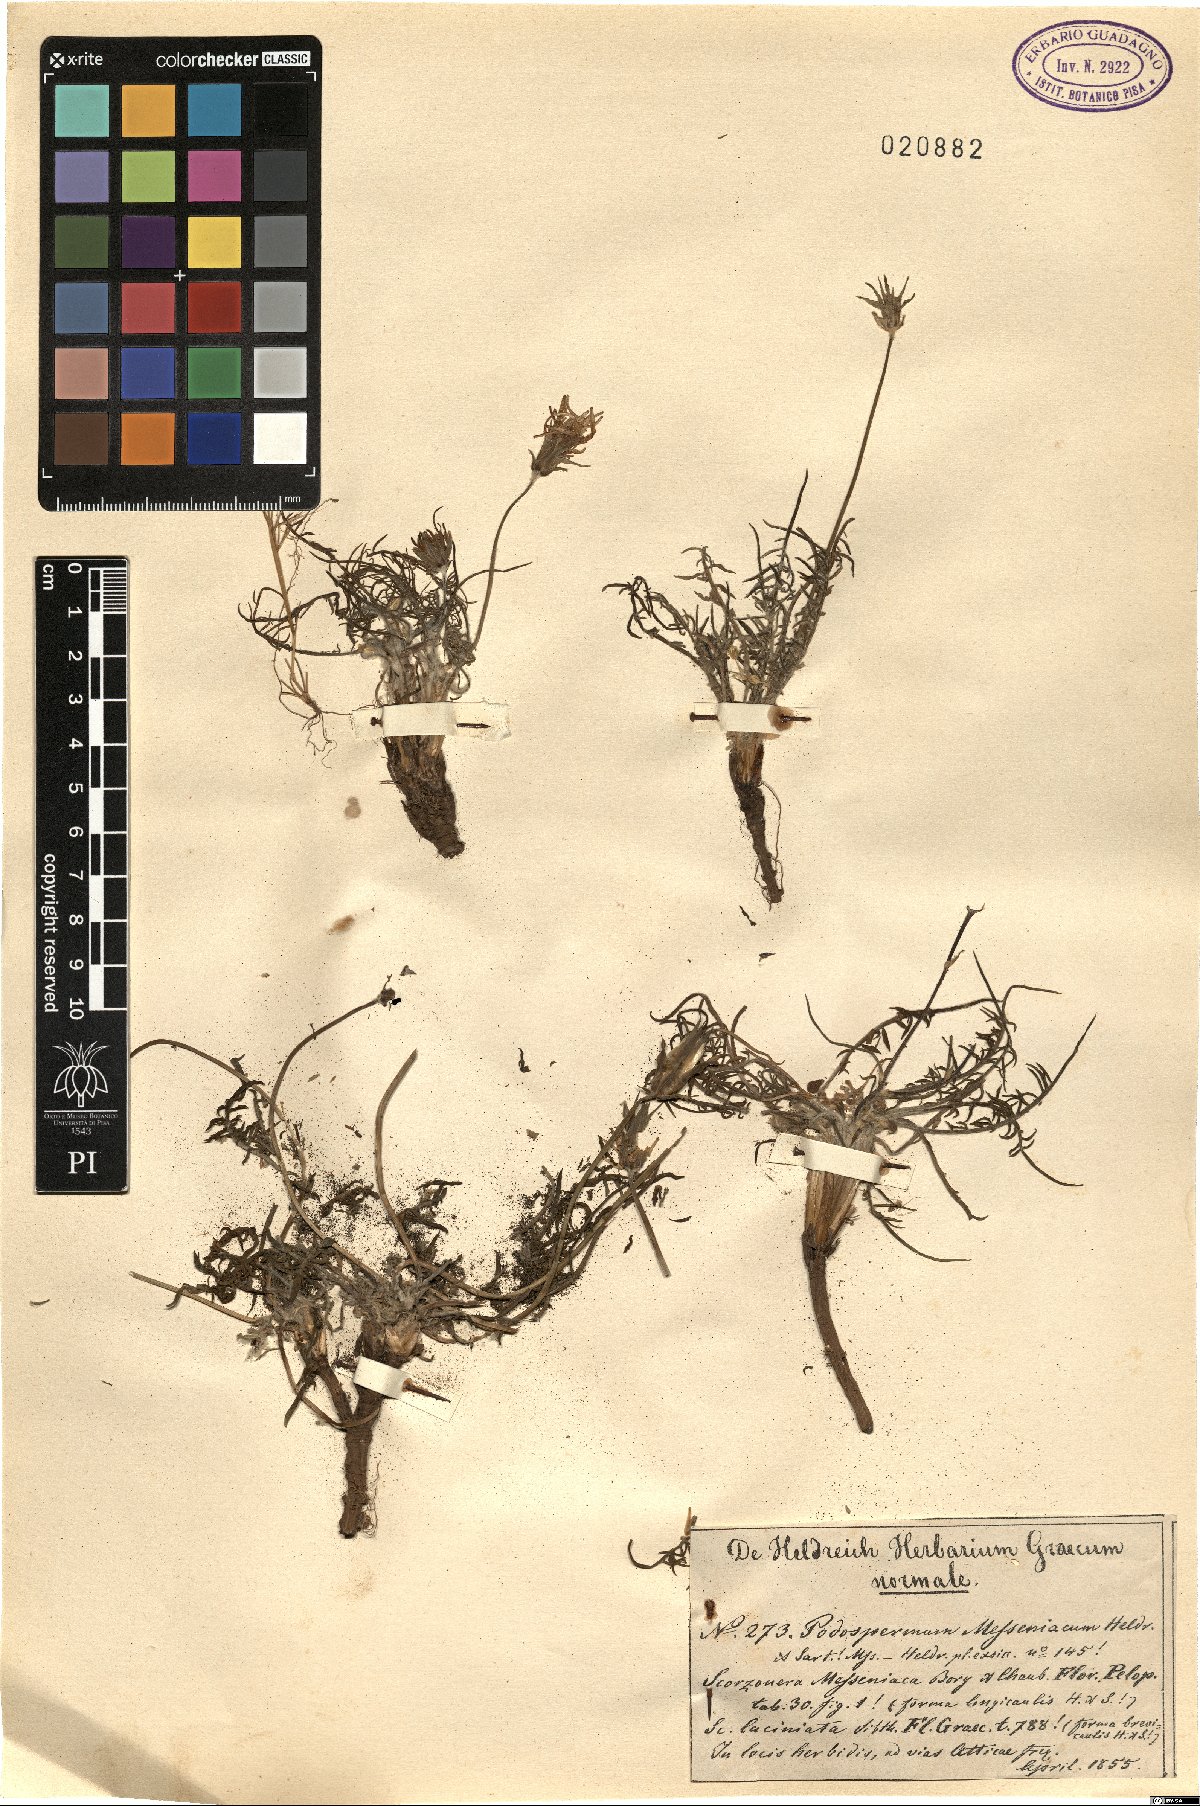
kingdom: Plantae
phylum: Tracheophyta
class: Magnoliopsida
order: Asterales
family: Asteraceae
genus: Scorzonera
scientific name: Scorzonera calcitrapifolia
